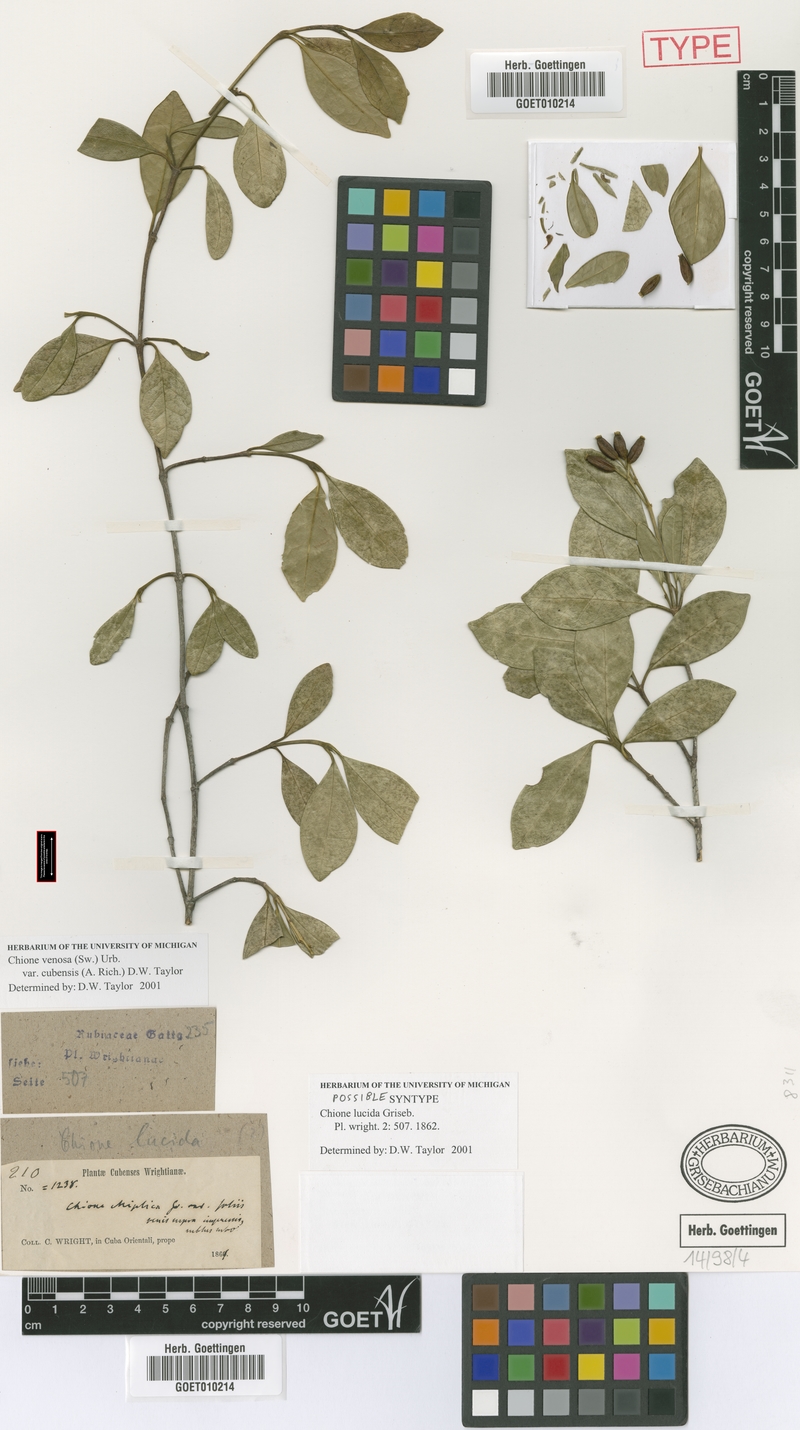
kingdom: Plantae
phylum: Tracheophyta
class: Magnoliopsida
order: Gentianales
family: Rubiaceae
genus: Chione
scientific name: Chione venosa
